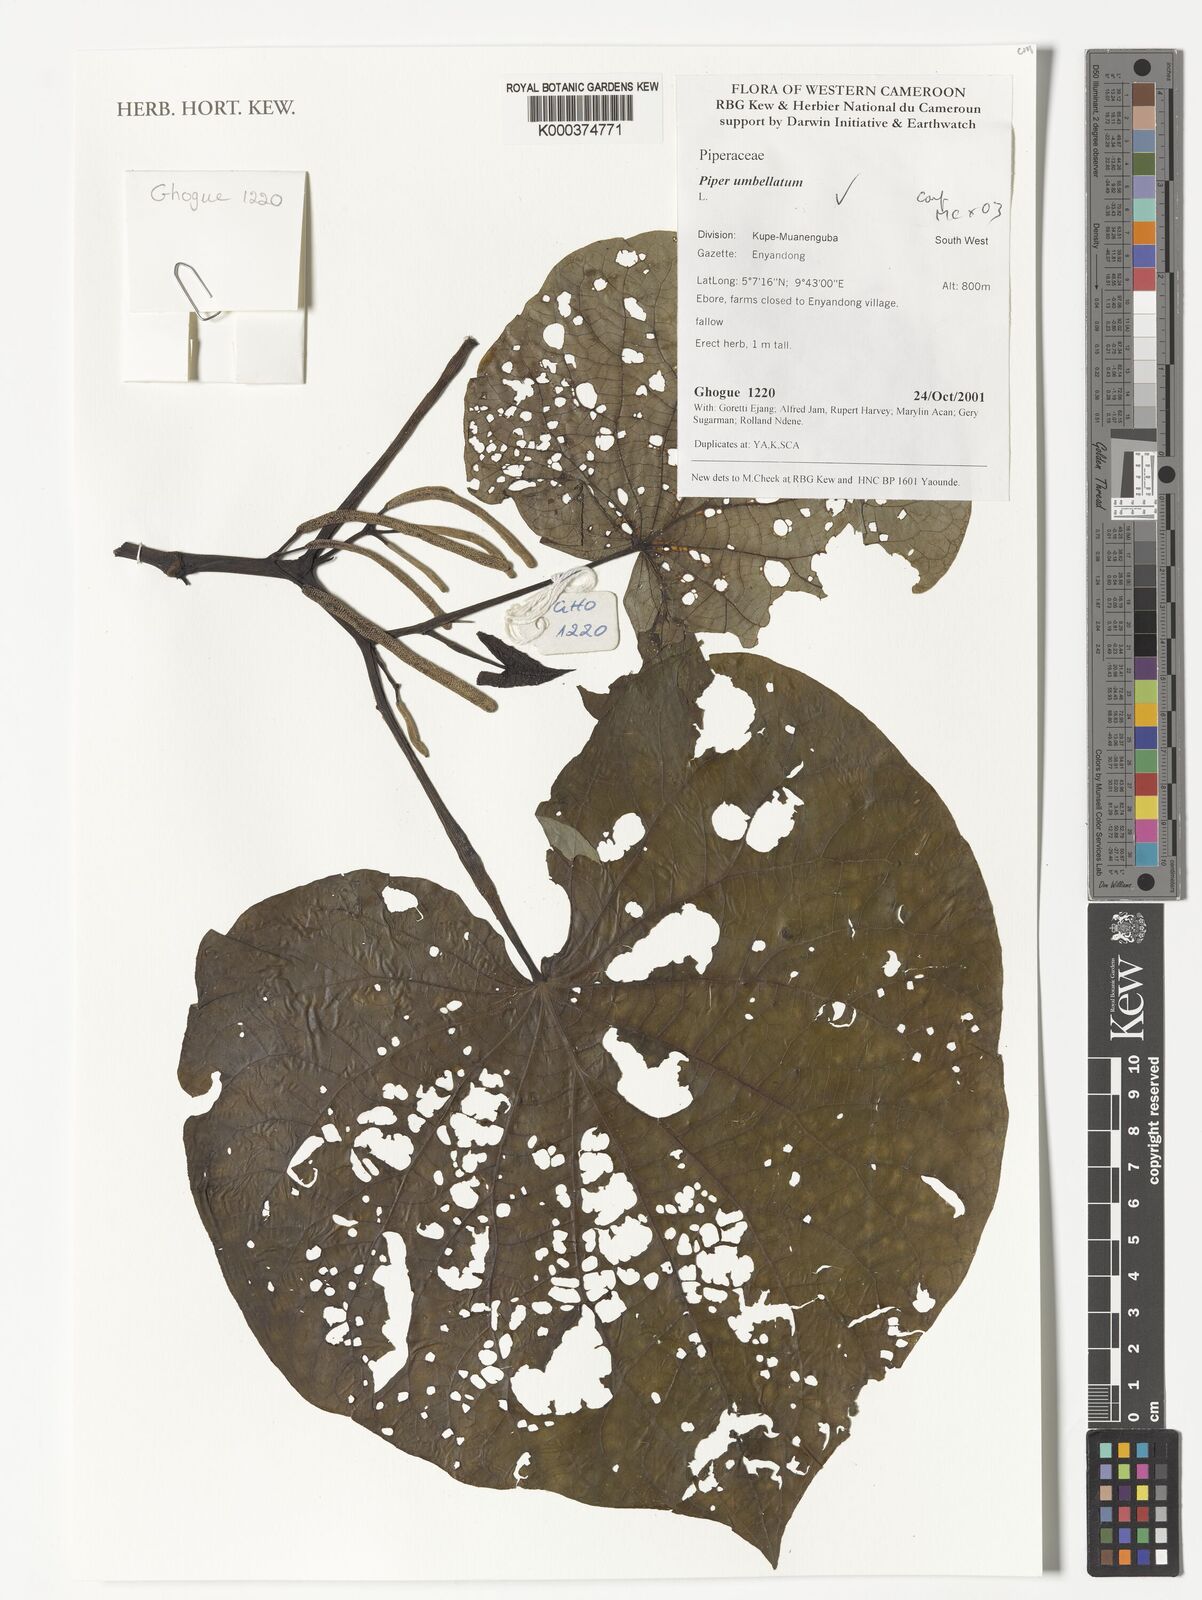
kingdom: Plantae
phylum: Tracheophyta
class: Magnoliopsida
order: Piperales
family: Piperaceae
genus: Piper
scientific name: Piper umbellatum
